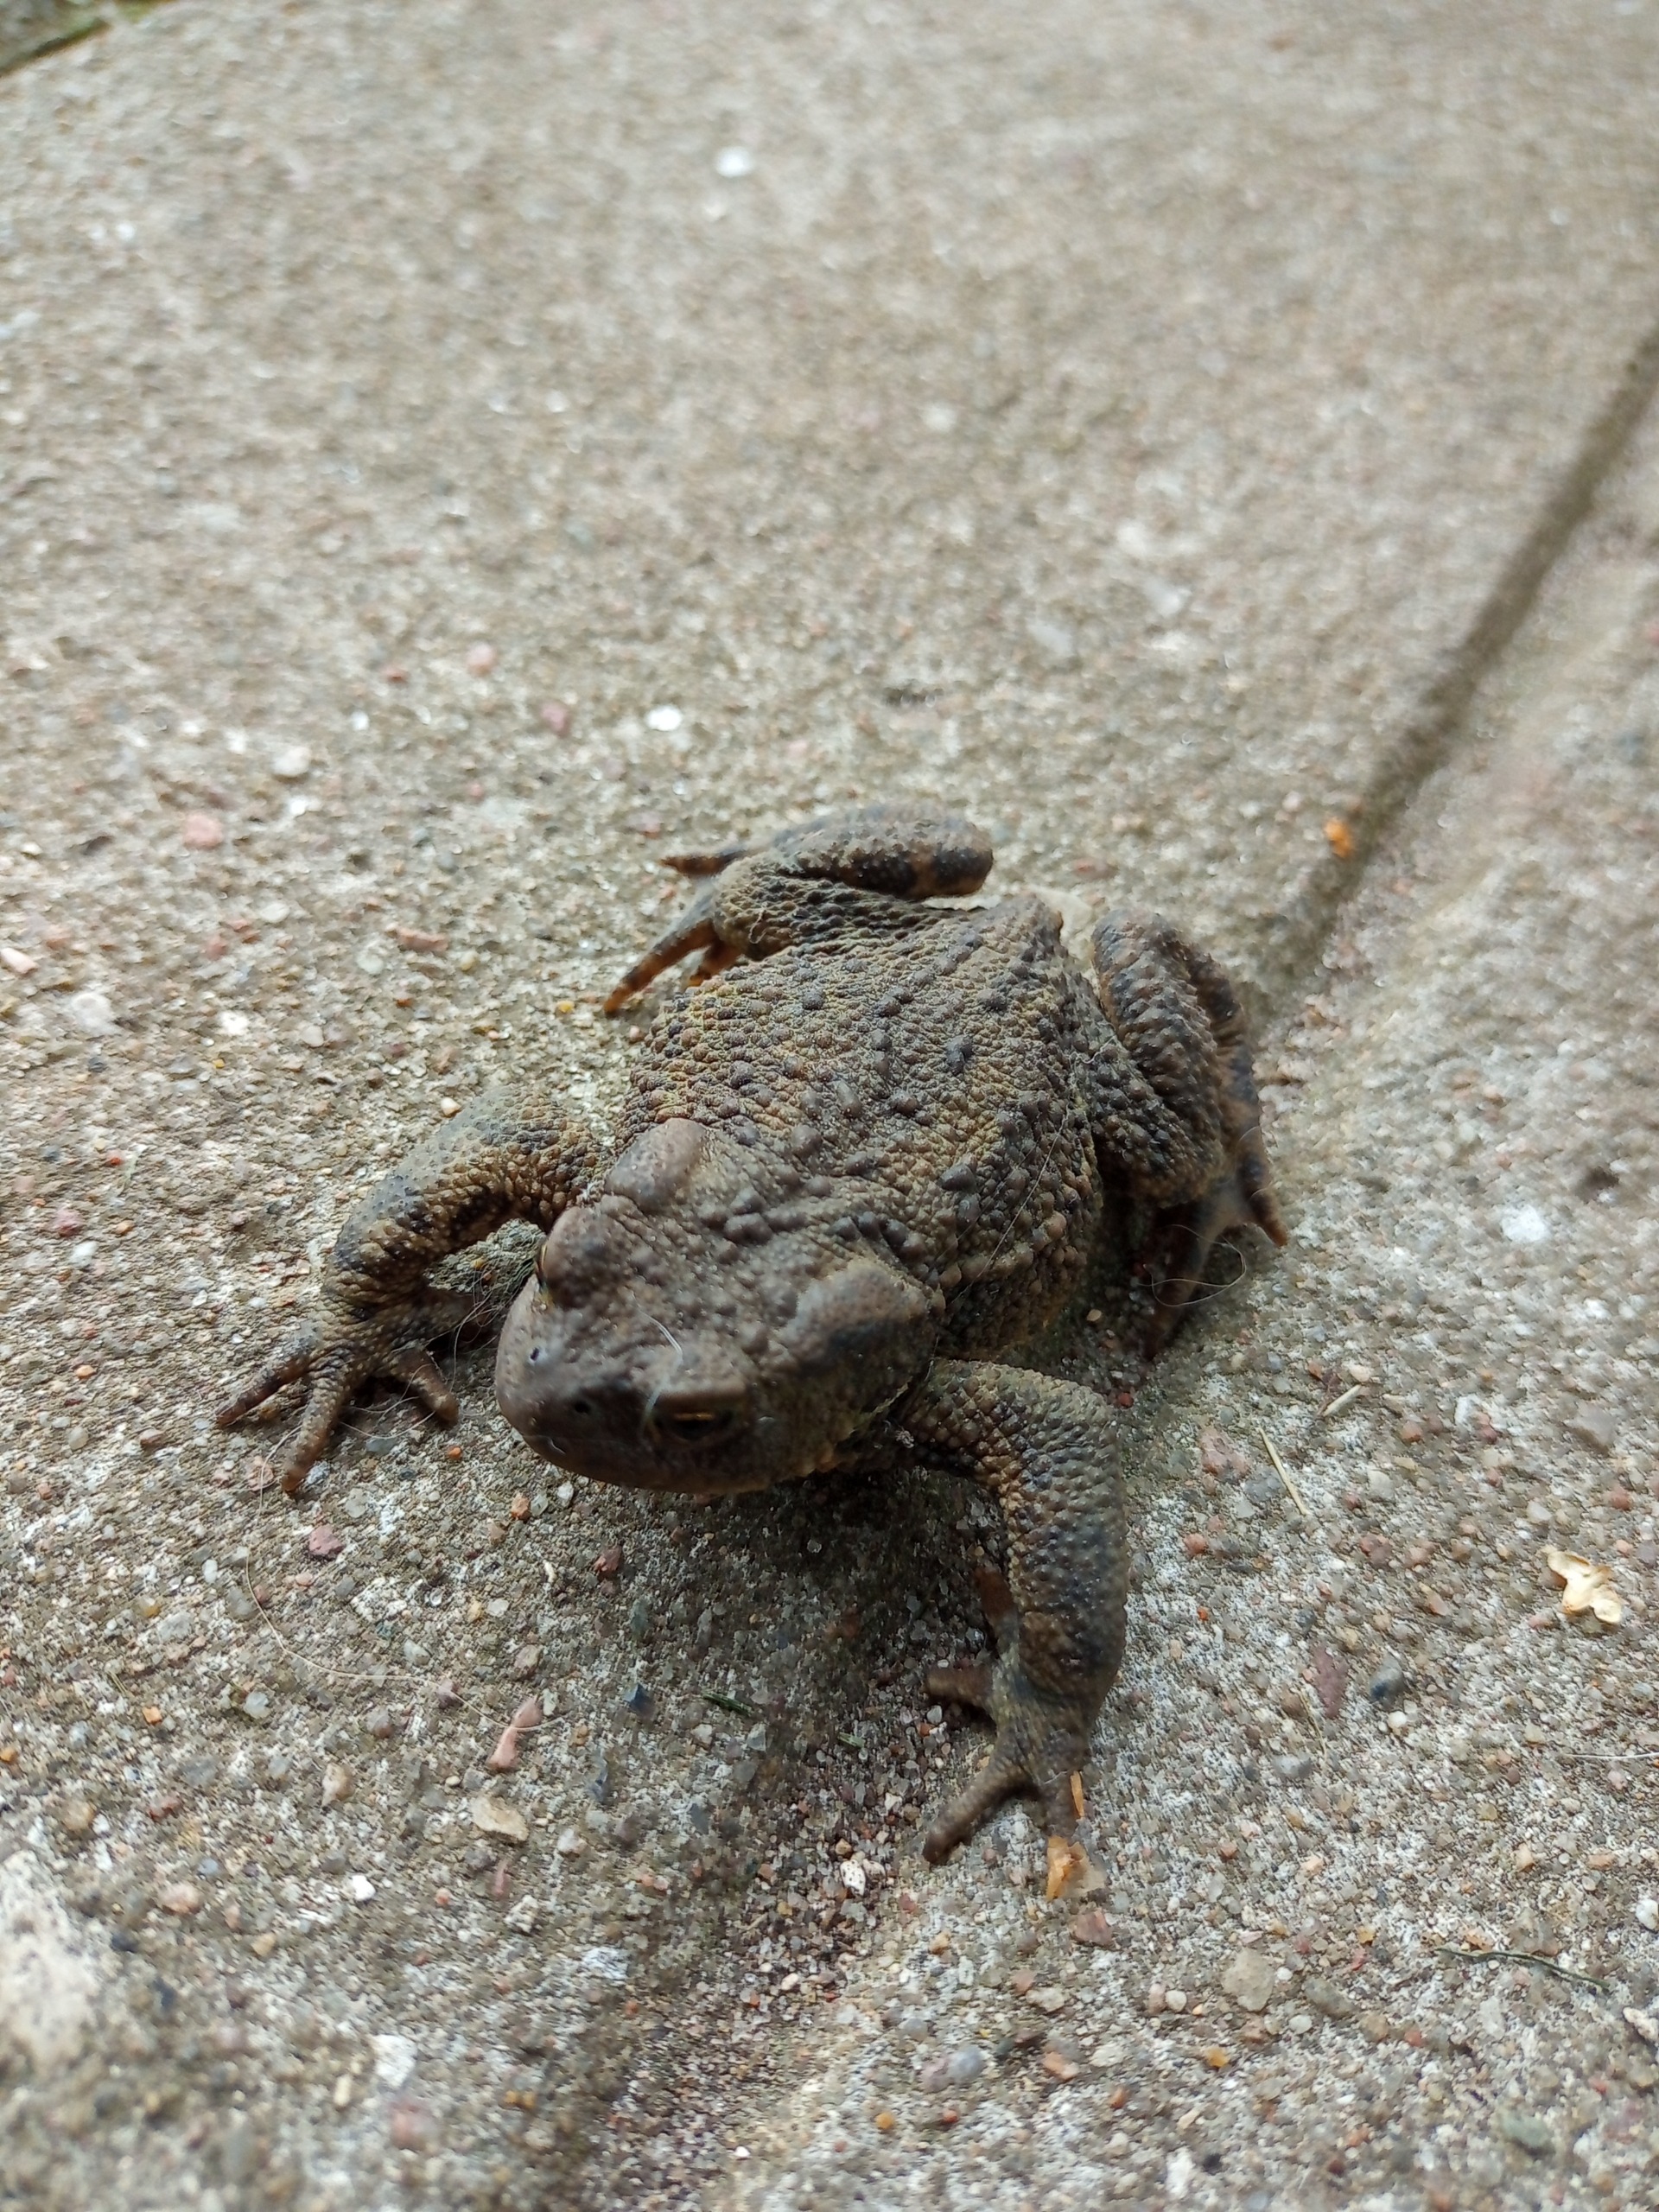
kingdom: Animalia
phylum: Chordata
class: Amphibia
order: Anura
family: Bufonidae
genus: Bufo
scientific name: Bufo bufo
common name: Skrubtudse
